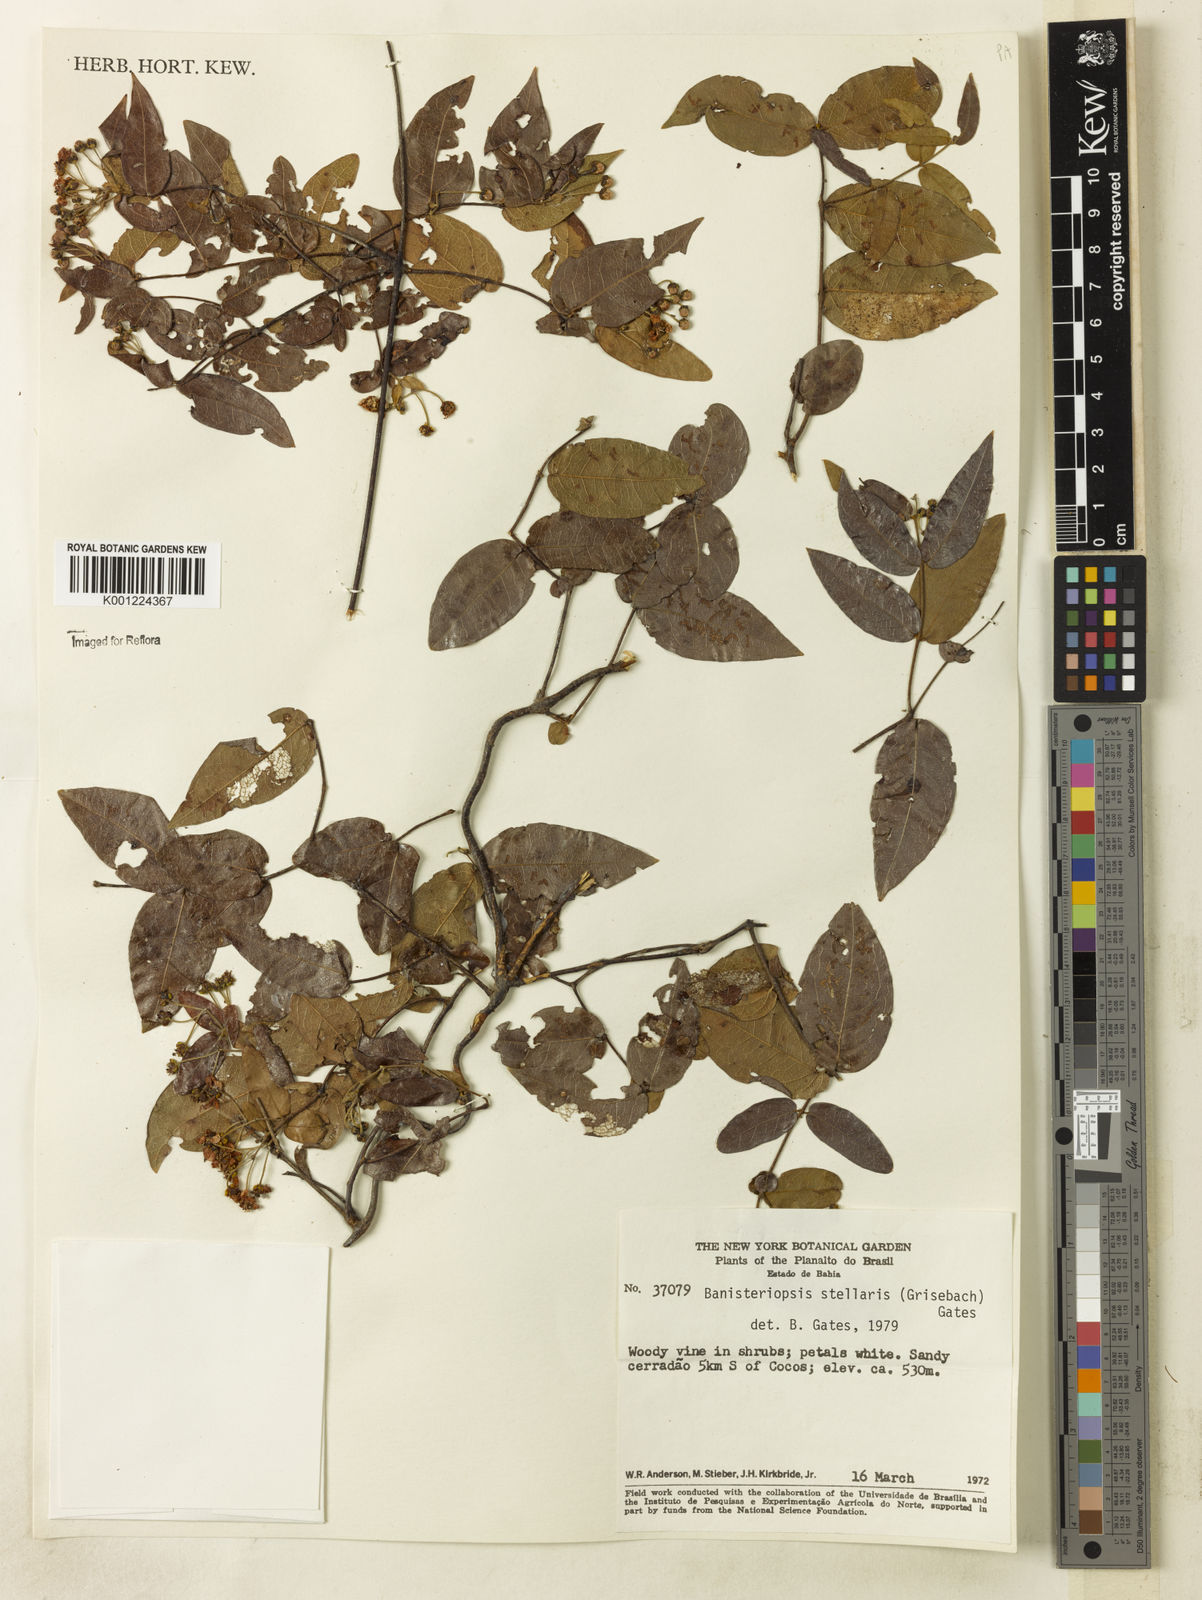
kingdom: Plantae
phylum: Tracheophyta
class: Magnoliopsida
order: Malpighiales
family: Malpighiaceae
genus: Banisteriopsis
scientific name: Banisteriopsis stellaris
